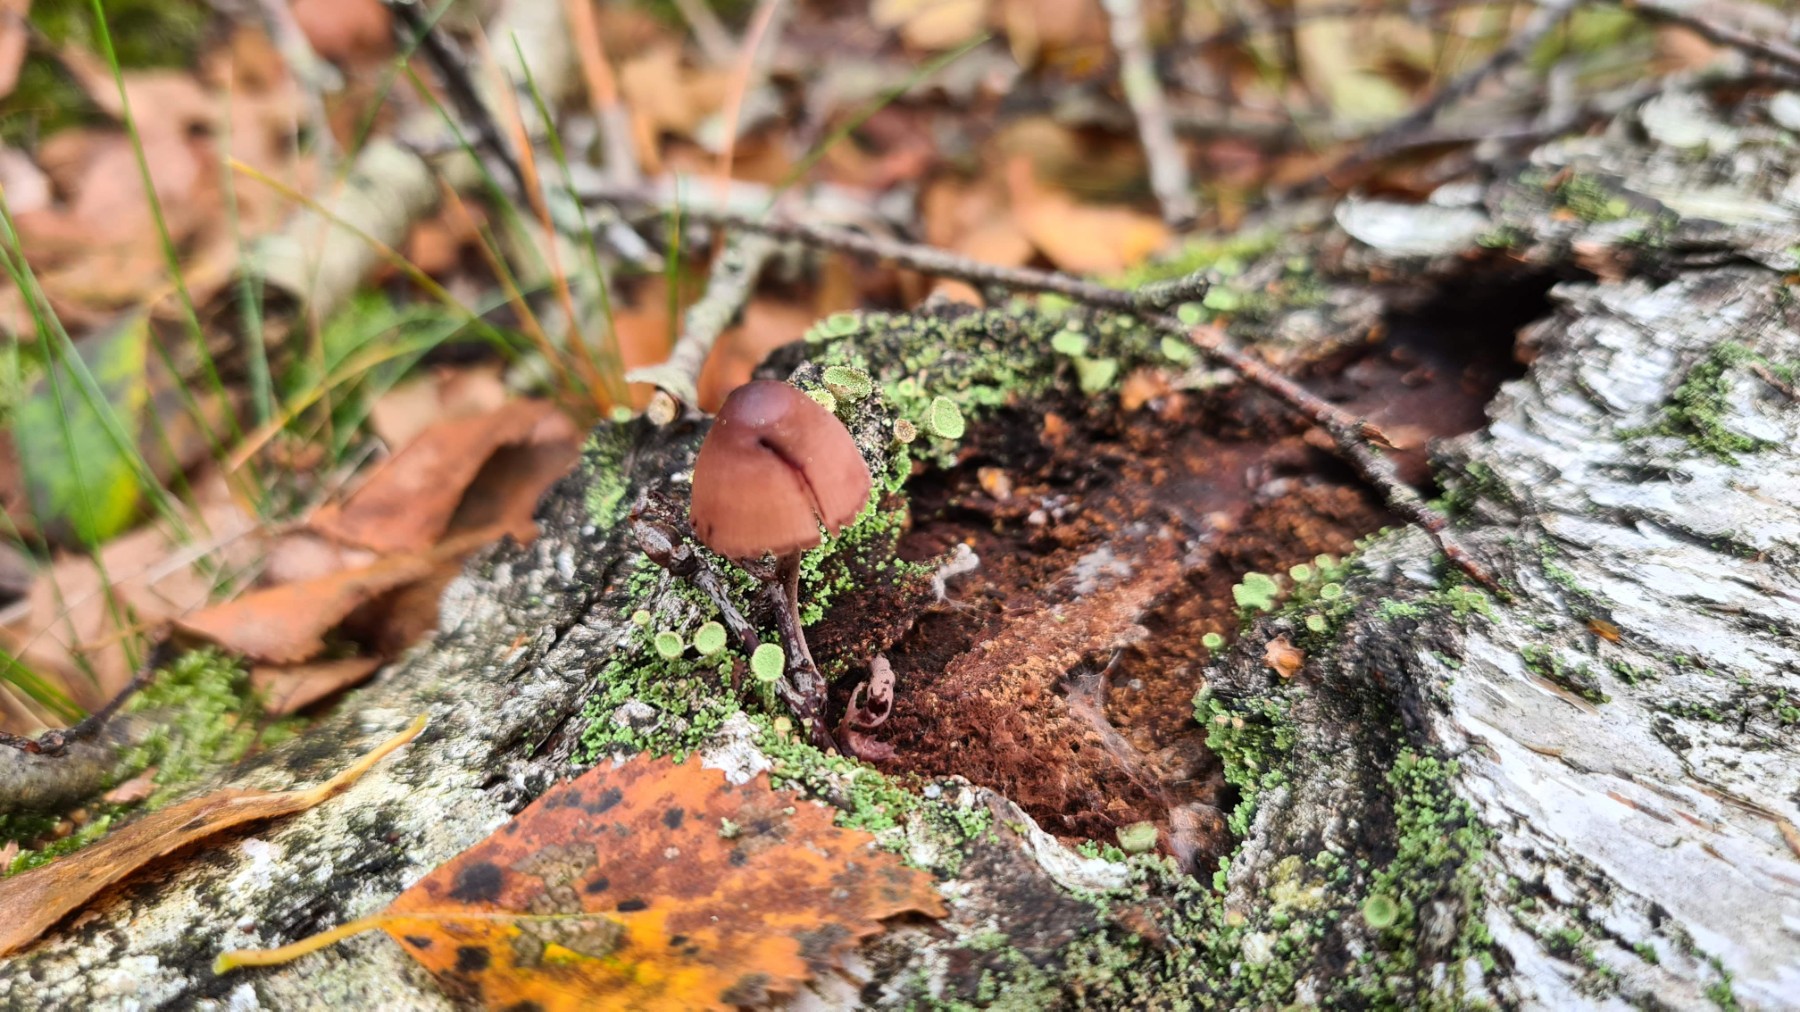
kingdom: Fungi
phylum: Basidiomycota
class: Agaricomycetes
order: Agaricales
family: Mycenaceae
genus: Mycena
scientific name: Mycena haematopus
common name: blødende huesvamp
